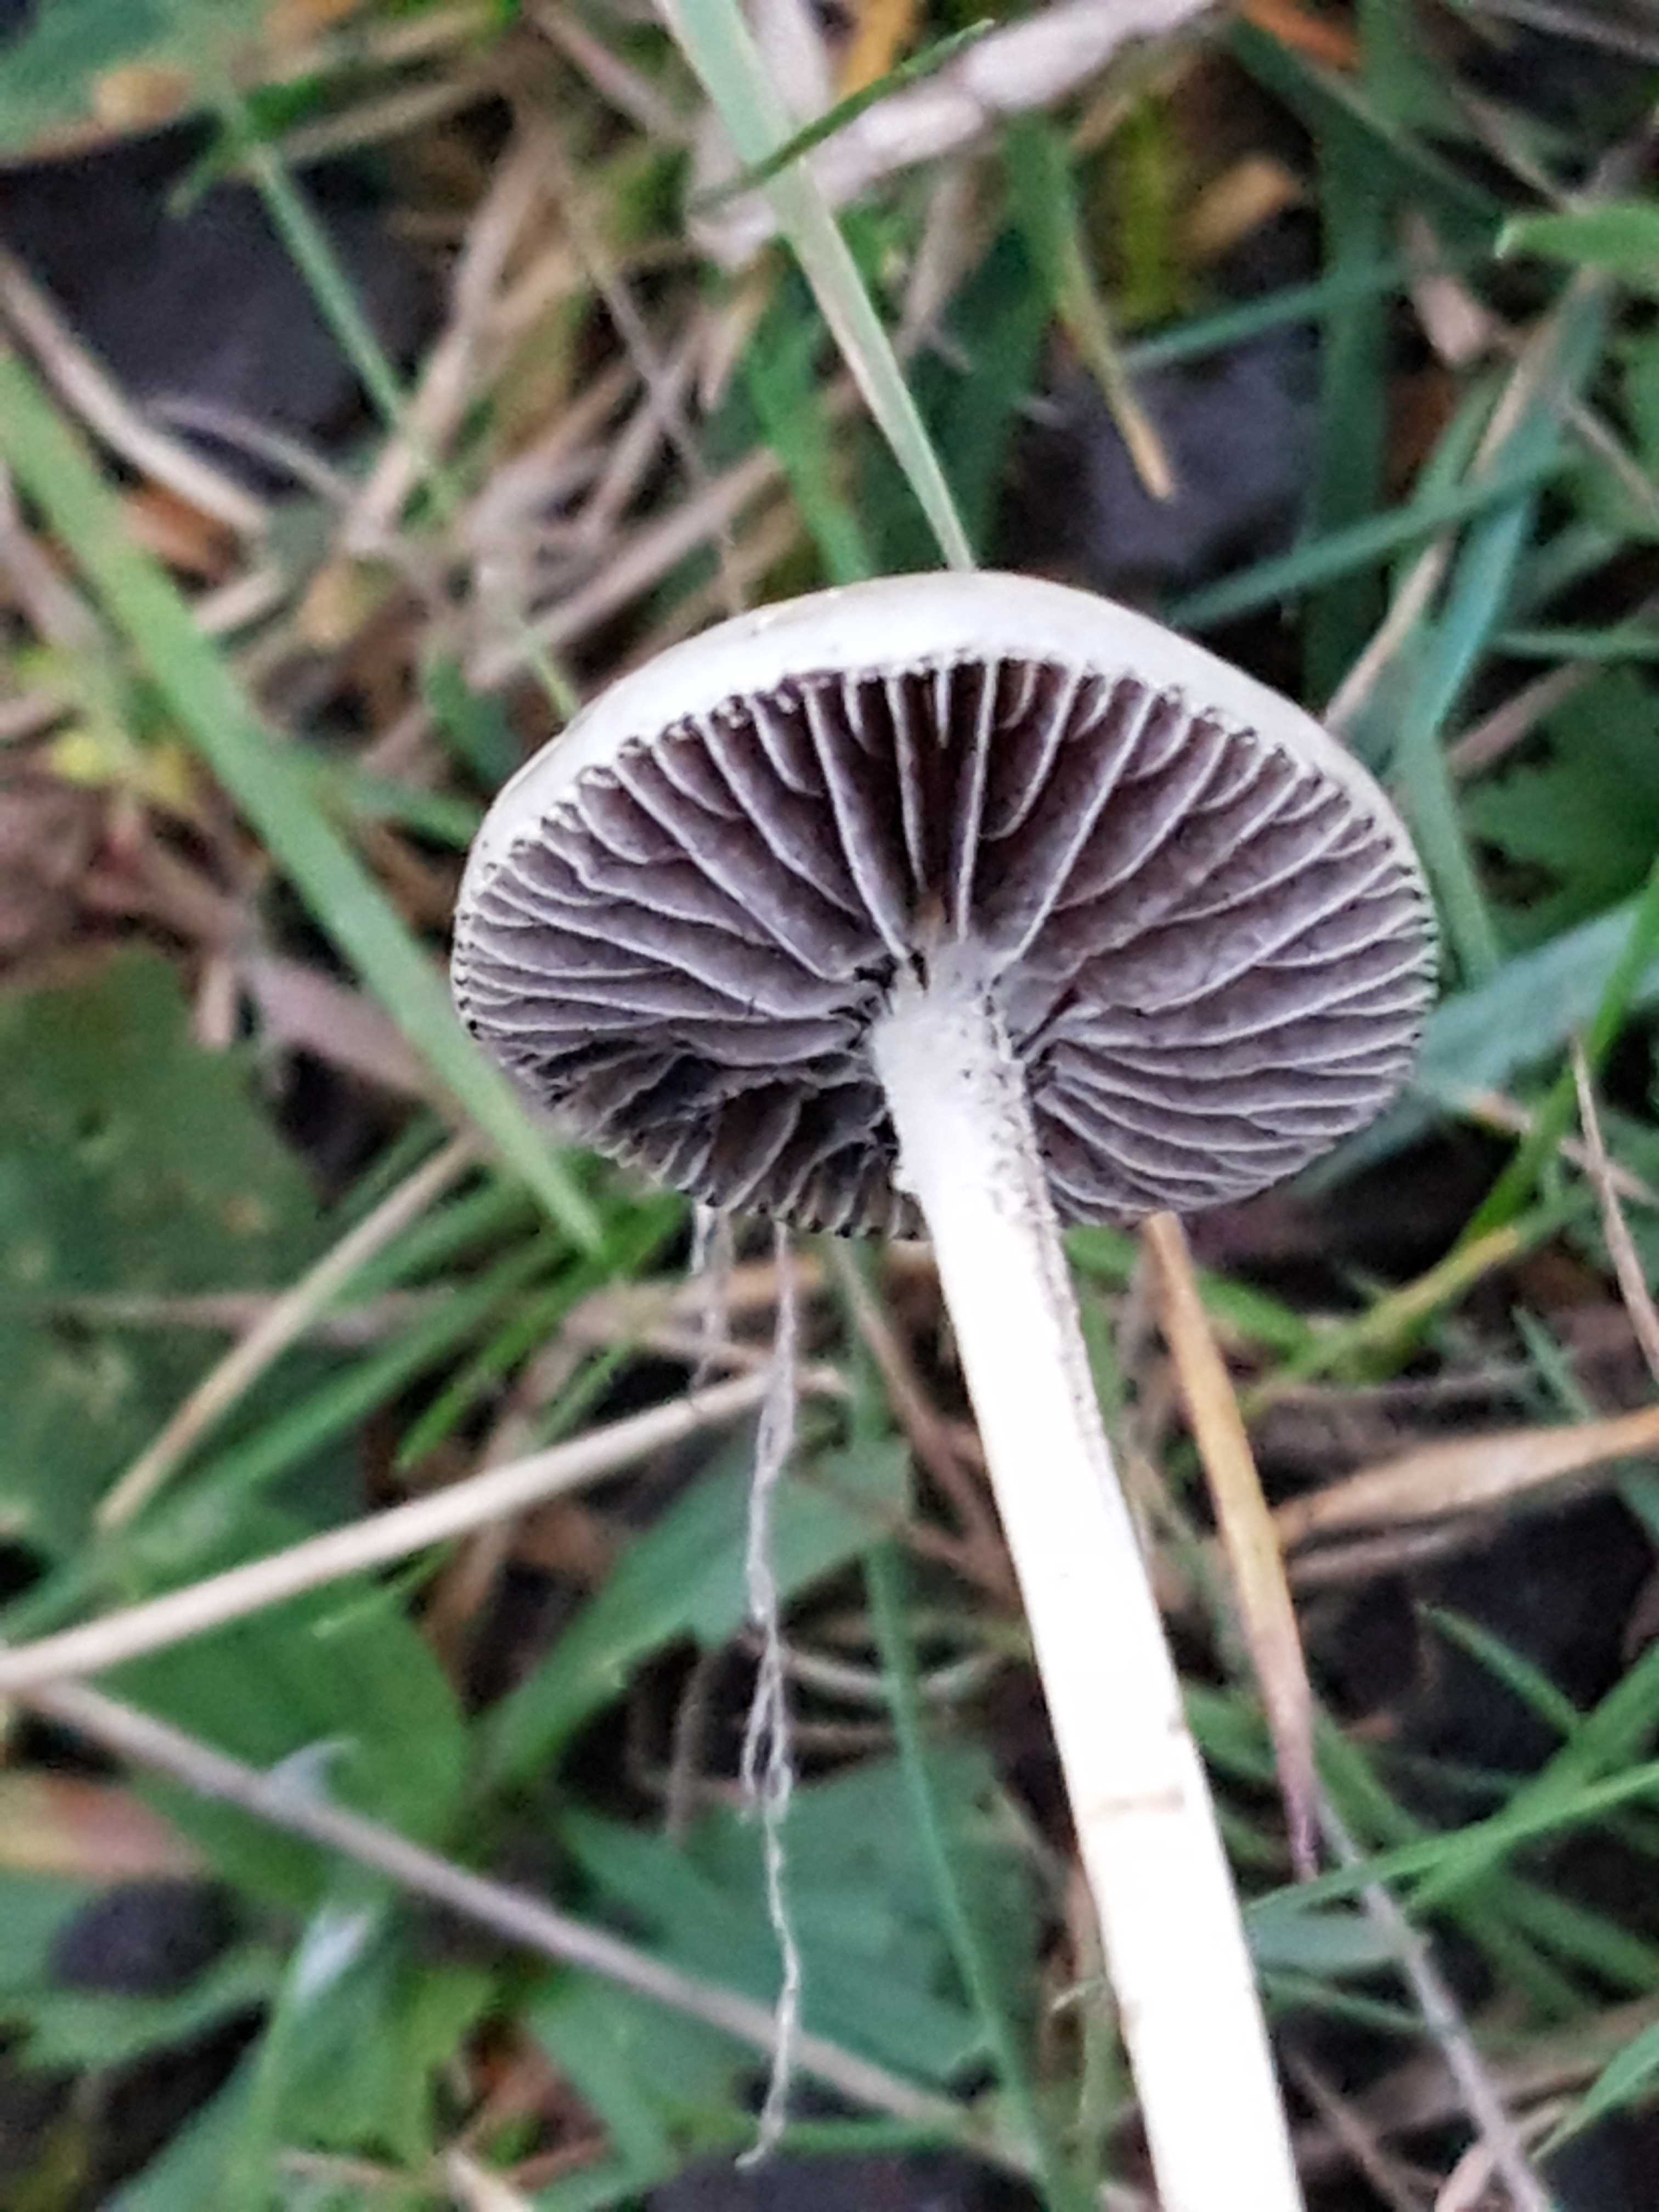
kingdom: Fungi
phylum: Basidiomycota
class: Agaricomycetes
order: Agaricales
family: Strophariaceae
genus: Protostropharia
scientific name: Protostropharia semiglobata
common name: halvkugleformet bredblad
